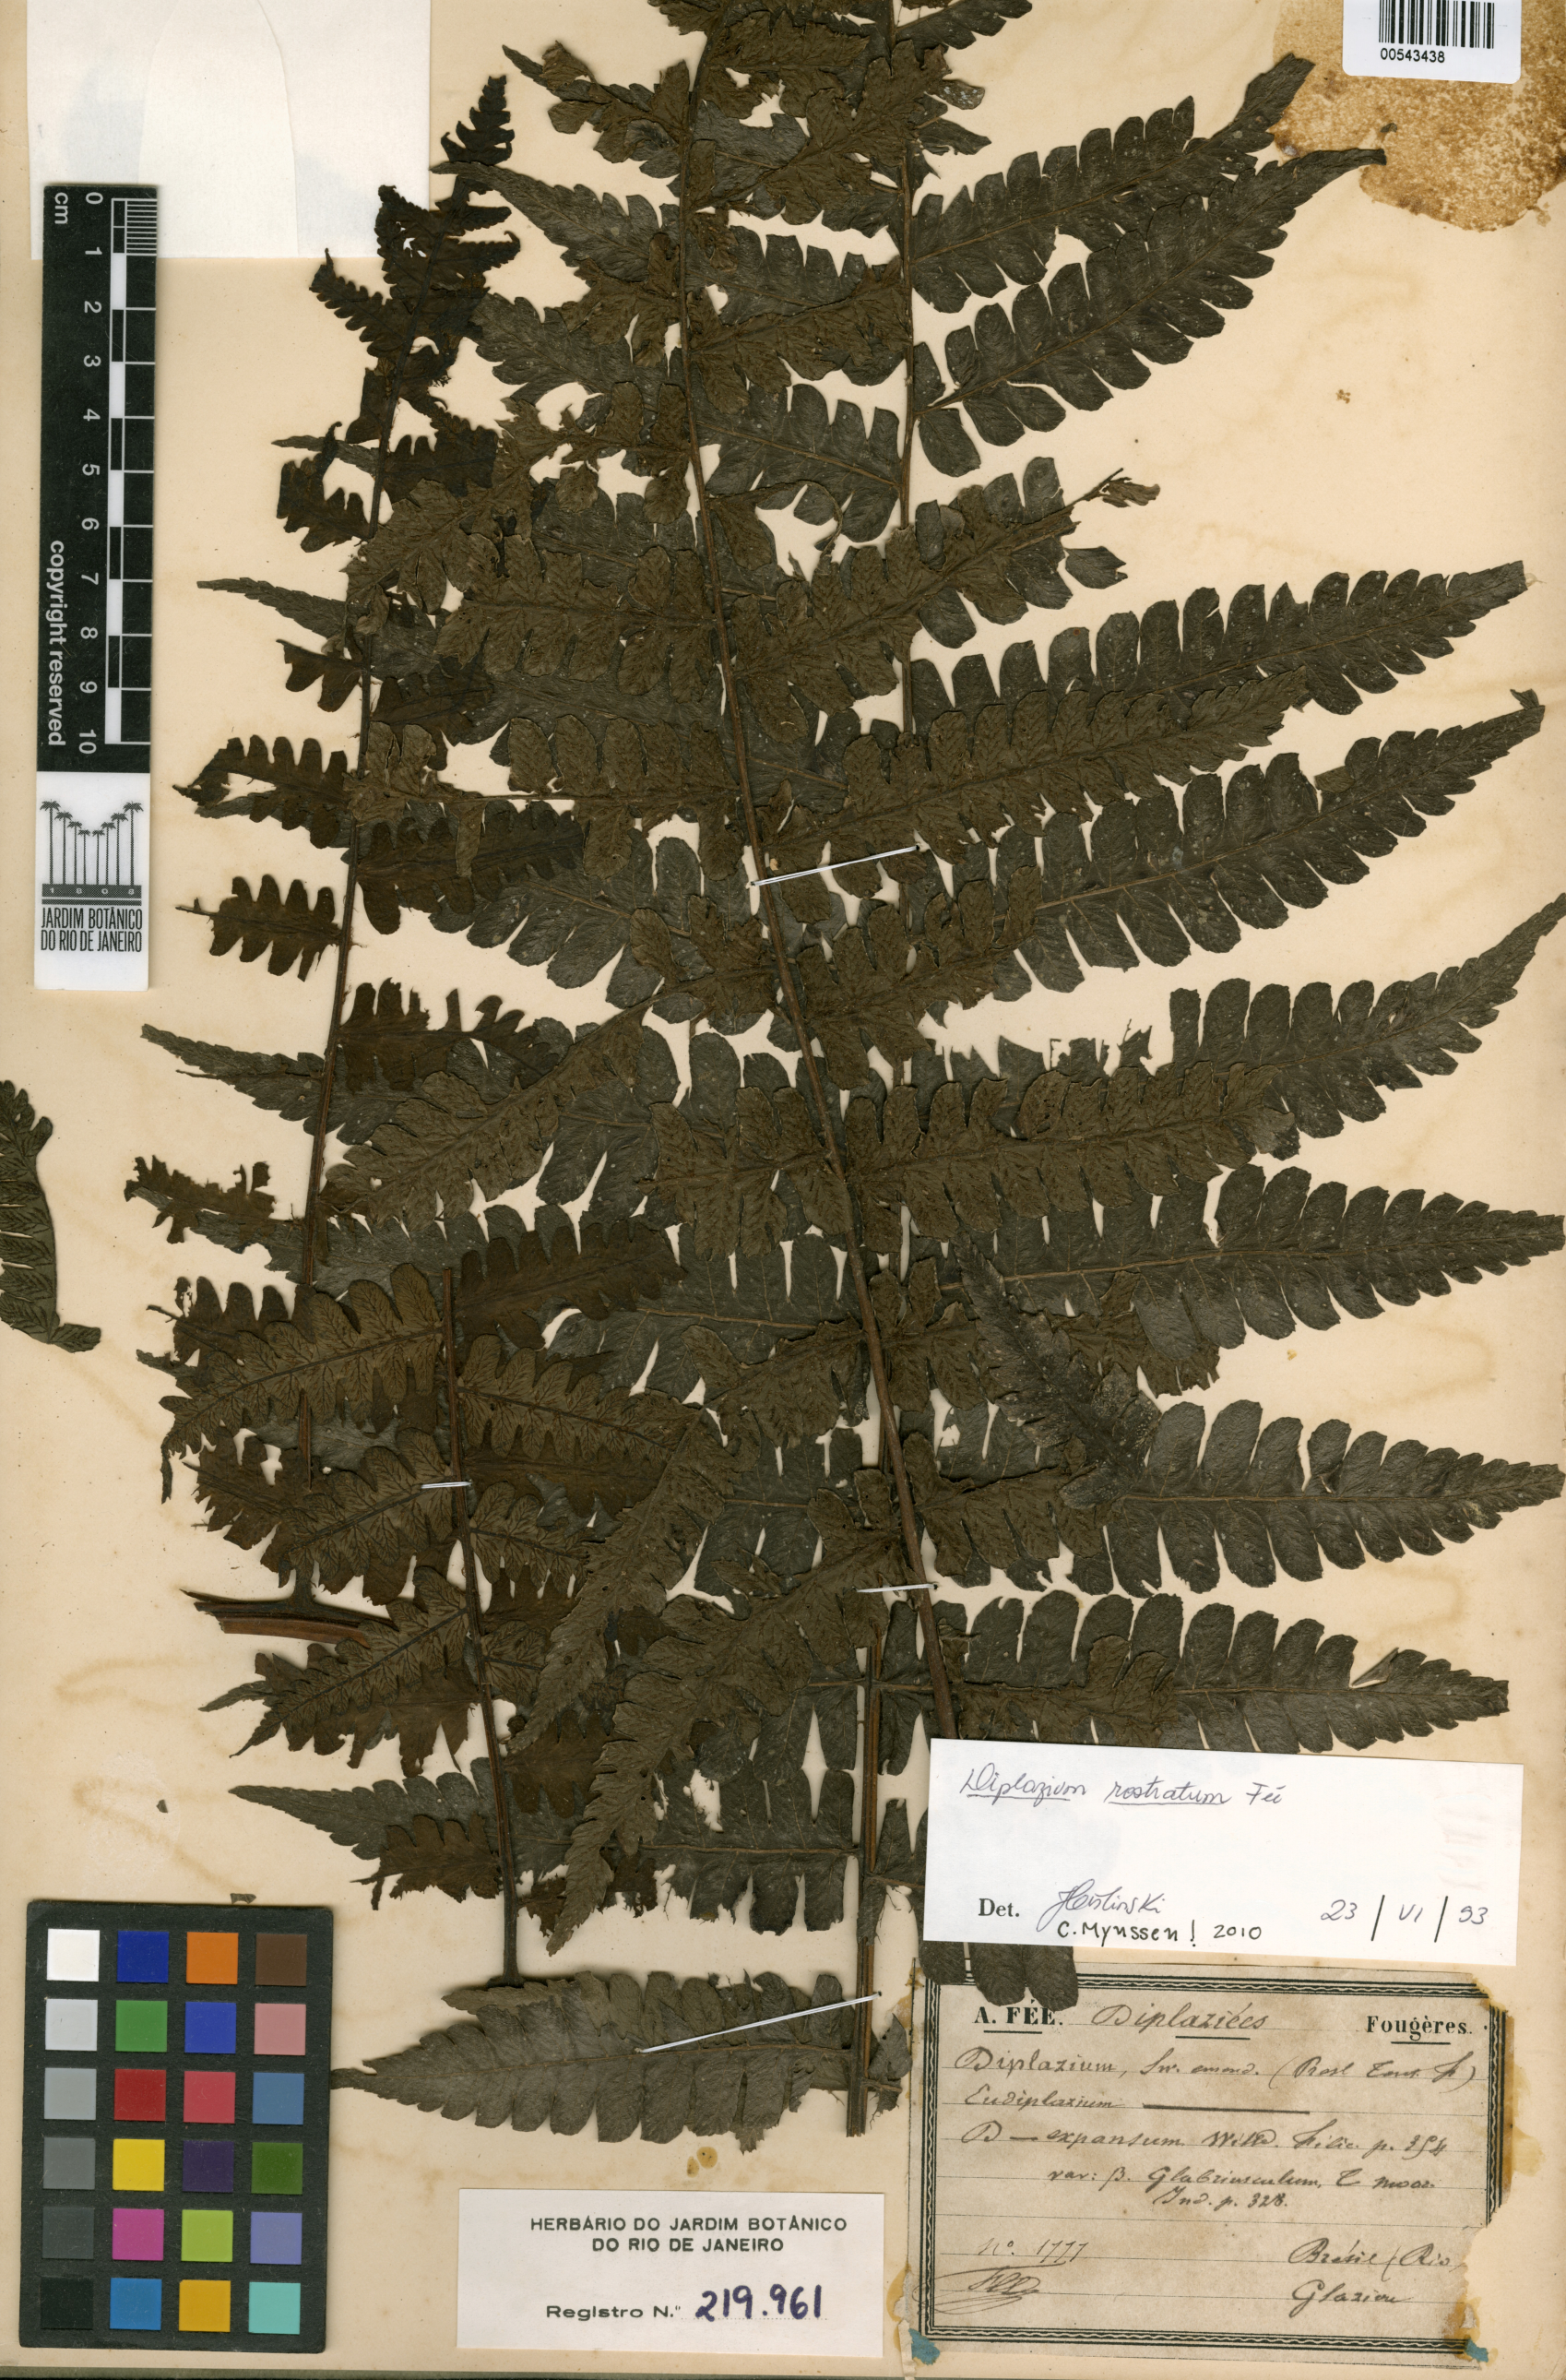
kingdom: Plantae
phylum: Tracheophyta
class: Polypodiopsida
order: Polypodiales
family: Athyriaceae
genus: Diplazium
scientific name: Diplazium rostratum
